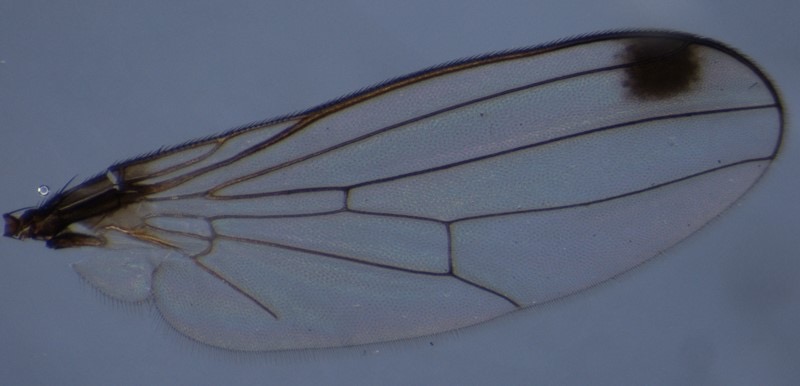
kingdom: Animalia
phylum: Arthropoda
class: Insecta
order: Diptera
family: Sepsidae
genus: Sepsis
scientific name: Sepsis fulgens
